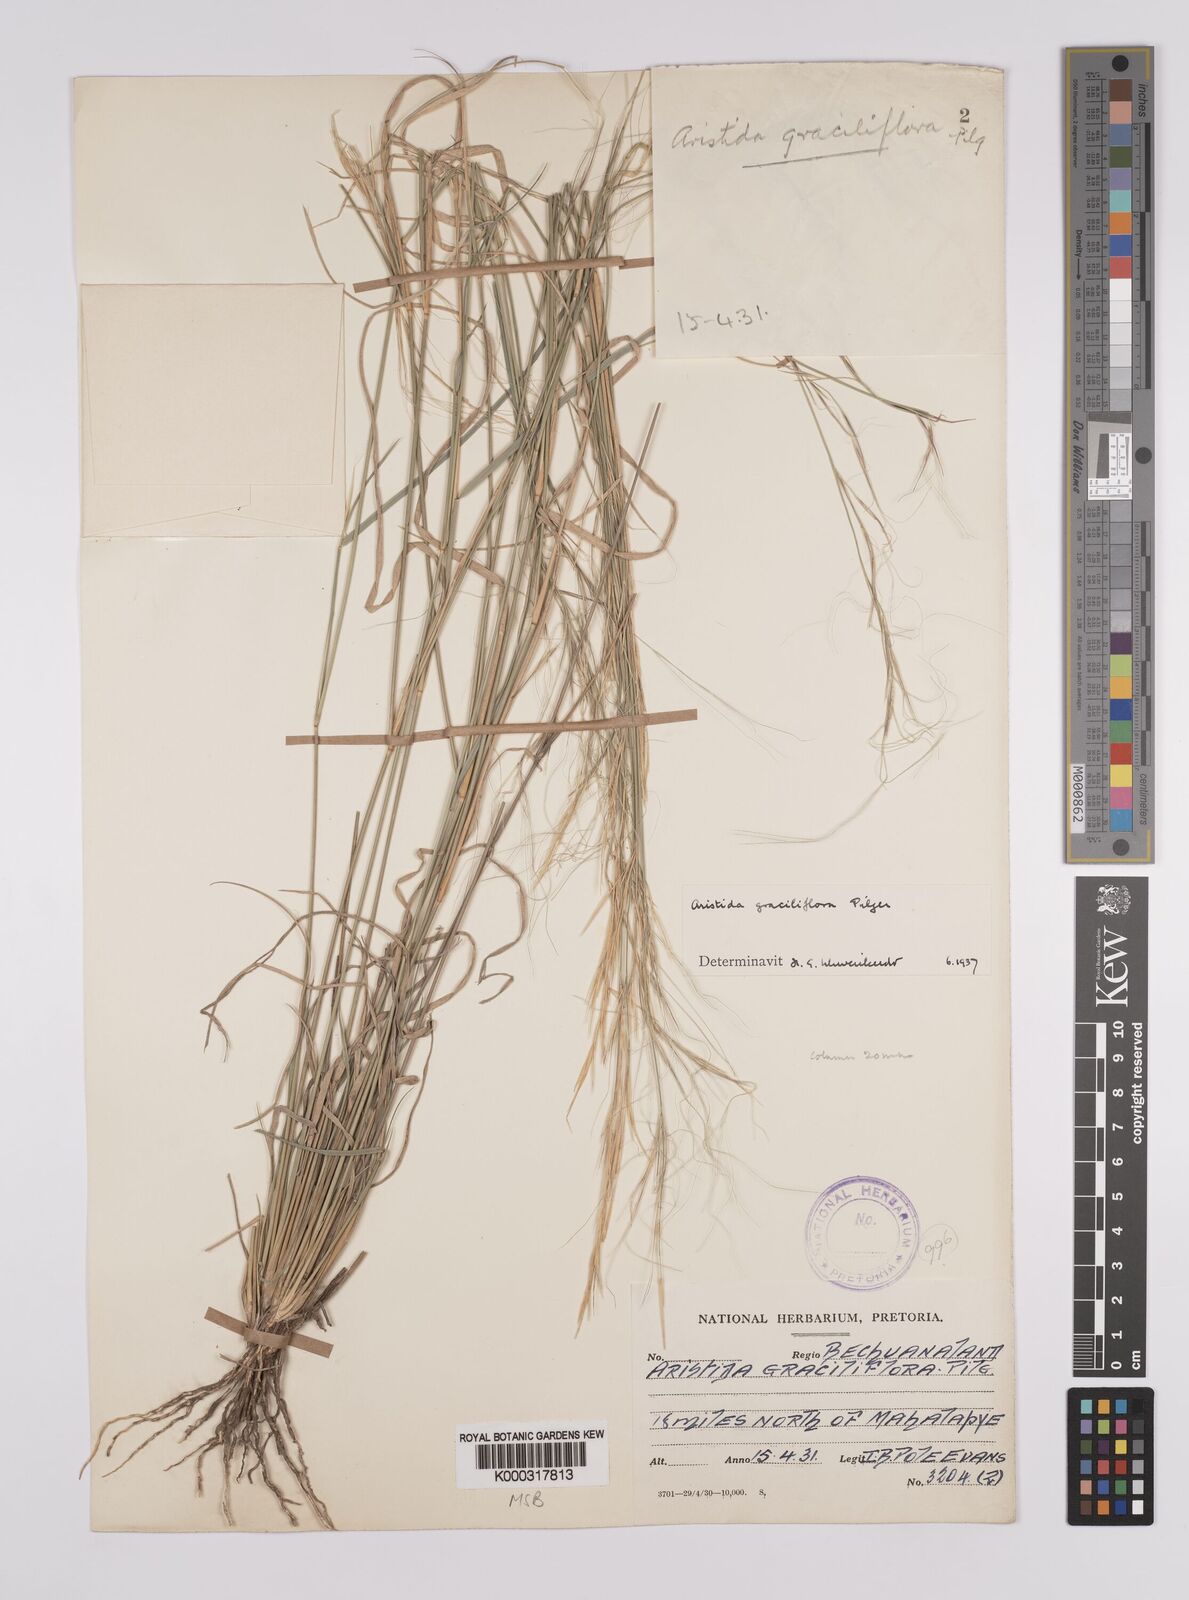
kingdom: Plantae
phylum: Tracheophyta
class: Liliopsida
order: Poales
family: Poaceae
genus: Aristida
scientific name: Aristida stipitata
